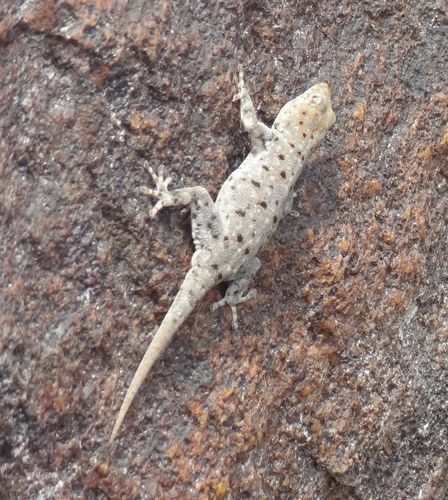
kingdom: Animalia
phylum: Chordata
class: Squamata
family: Gekkonidae
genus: Rhoptropus
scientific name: Rhoptropus benguellensis
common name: Benguela day gecko
